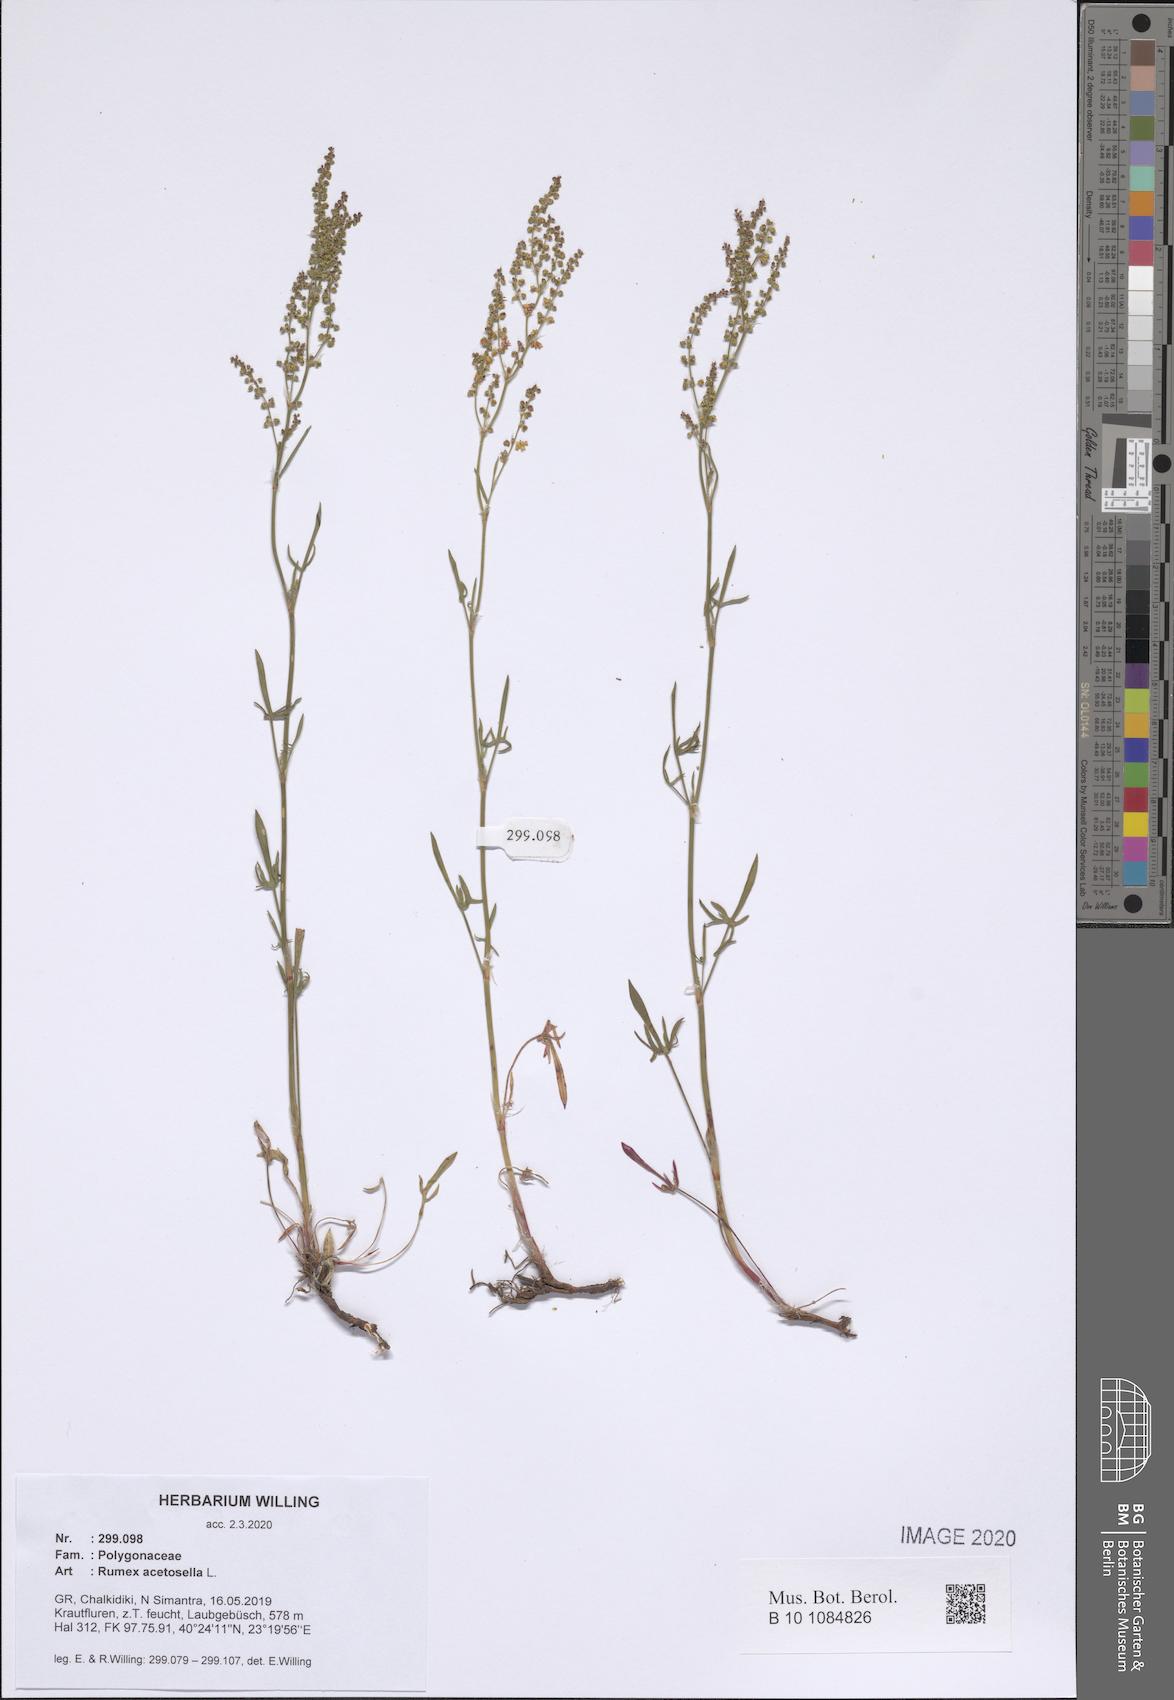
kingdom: Plantae
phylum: Tracheophyta
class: Magnoliopsida
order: Caryophyllales
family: Polygonaceae
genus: Rumex
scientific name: Rumex acetosella
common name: Common sheep sorrel
